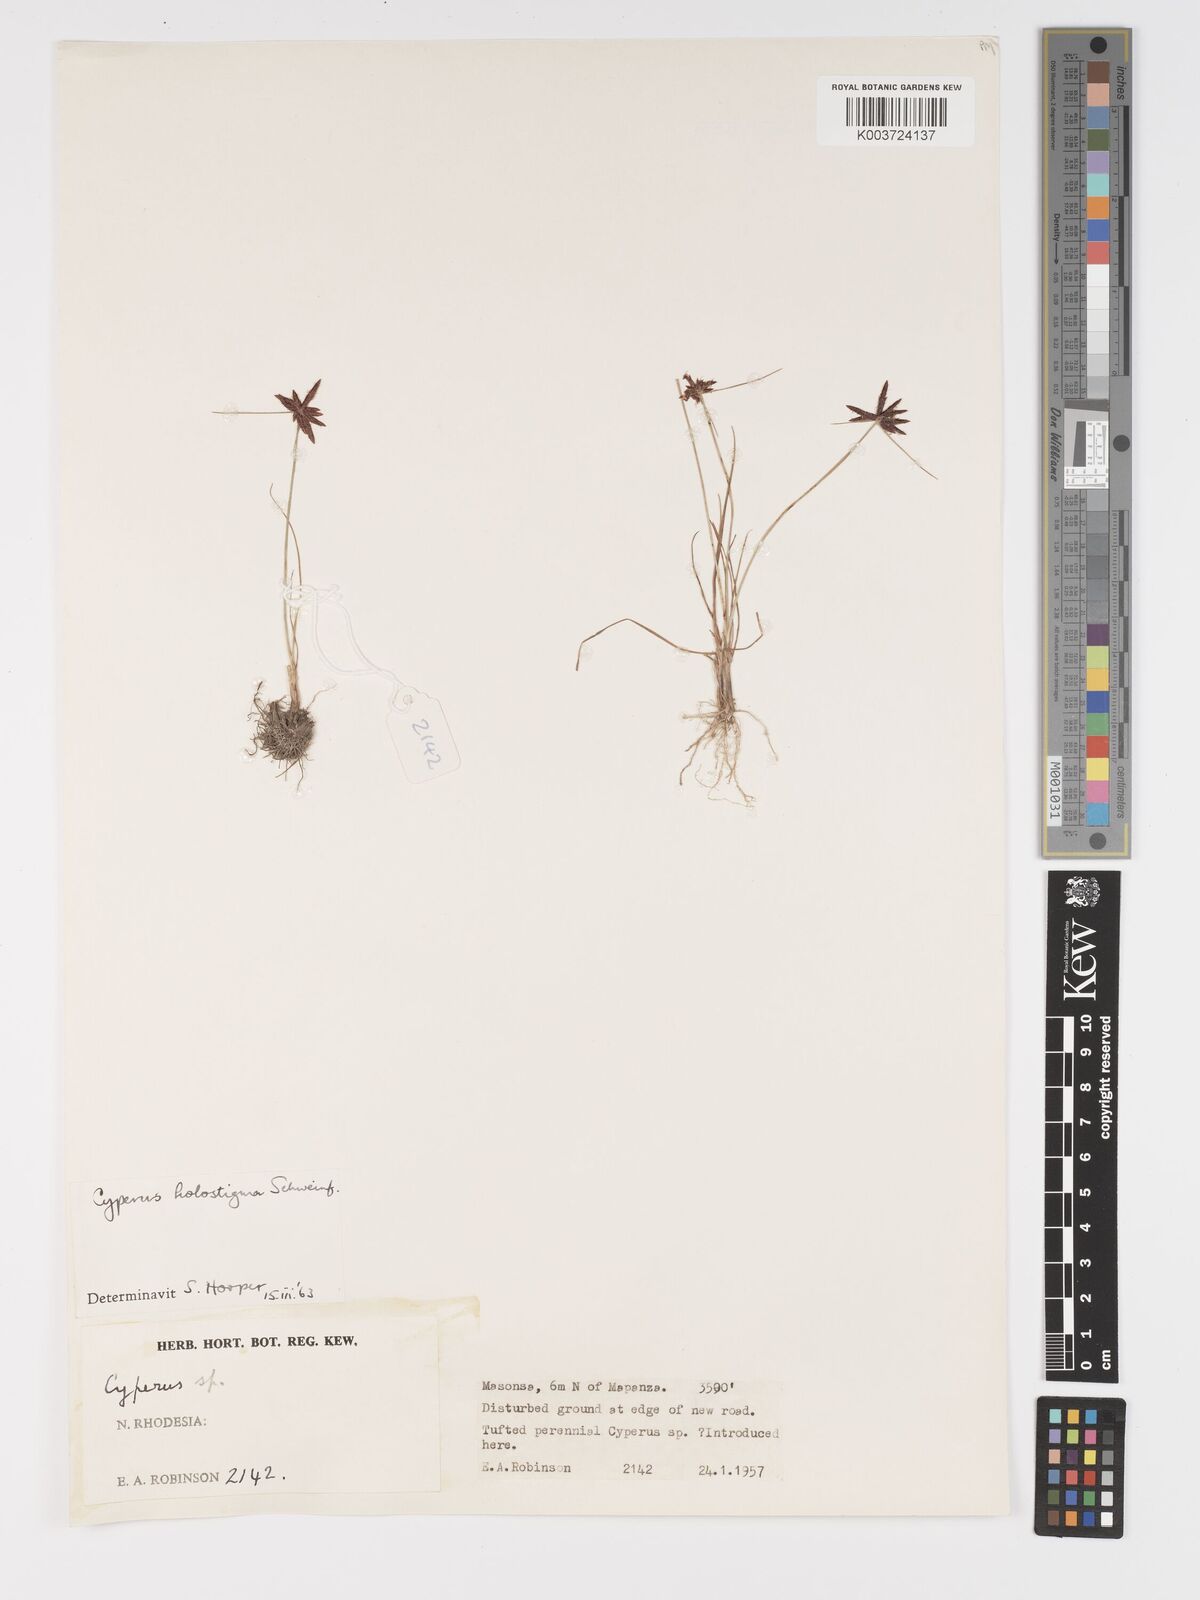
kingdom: Plantae
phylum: Tracheophyta
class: Liliopsida
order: Poales
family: Cyperaceae
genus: Cyperus
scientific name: Cyperus holostigma
